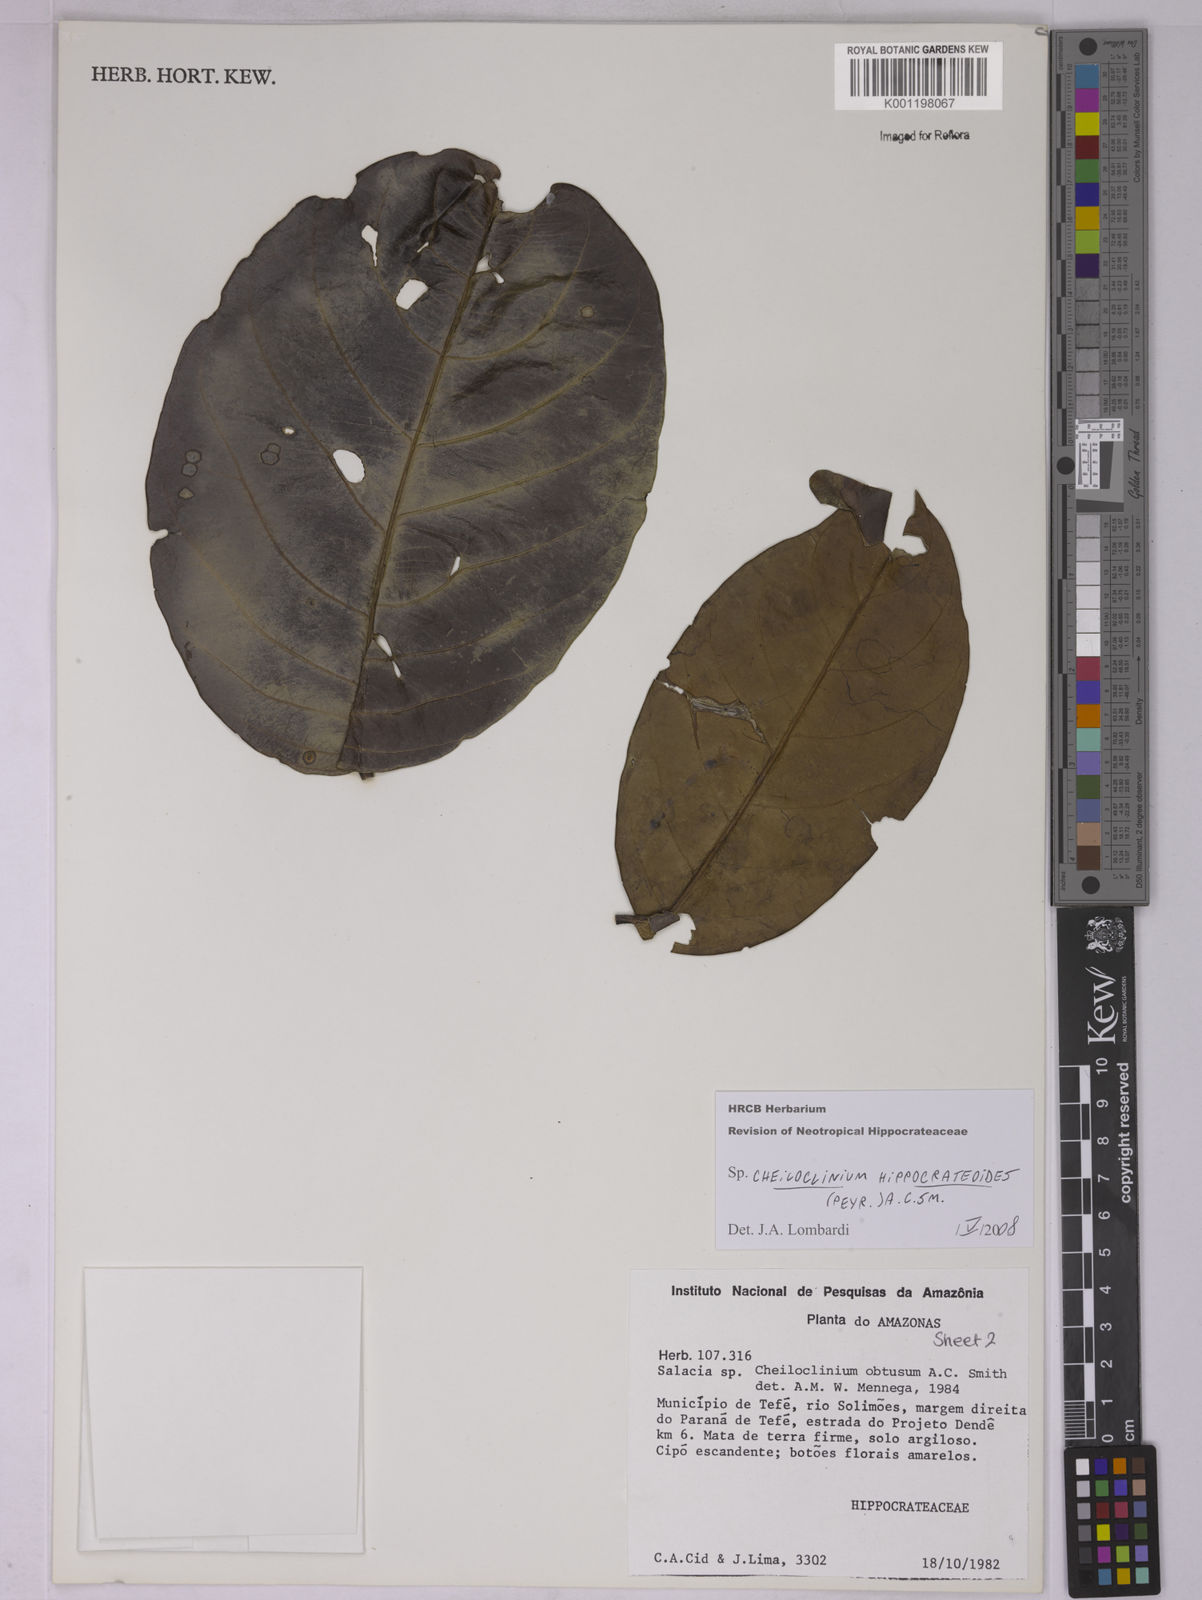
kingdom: Plantae
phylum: Tracheophyta
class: Magnoliopsida
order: Celastrales
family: Celastraceae
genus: Cheiloclinium
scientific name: Cheiloclinium hippocrateoides
